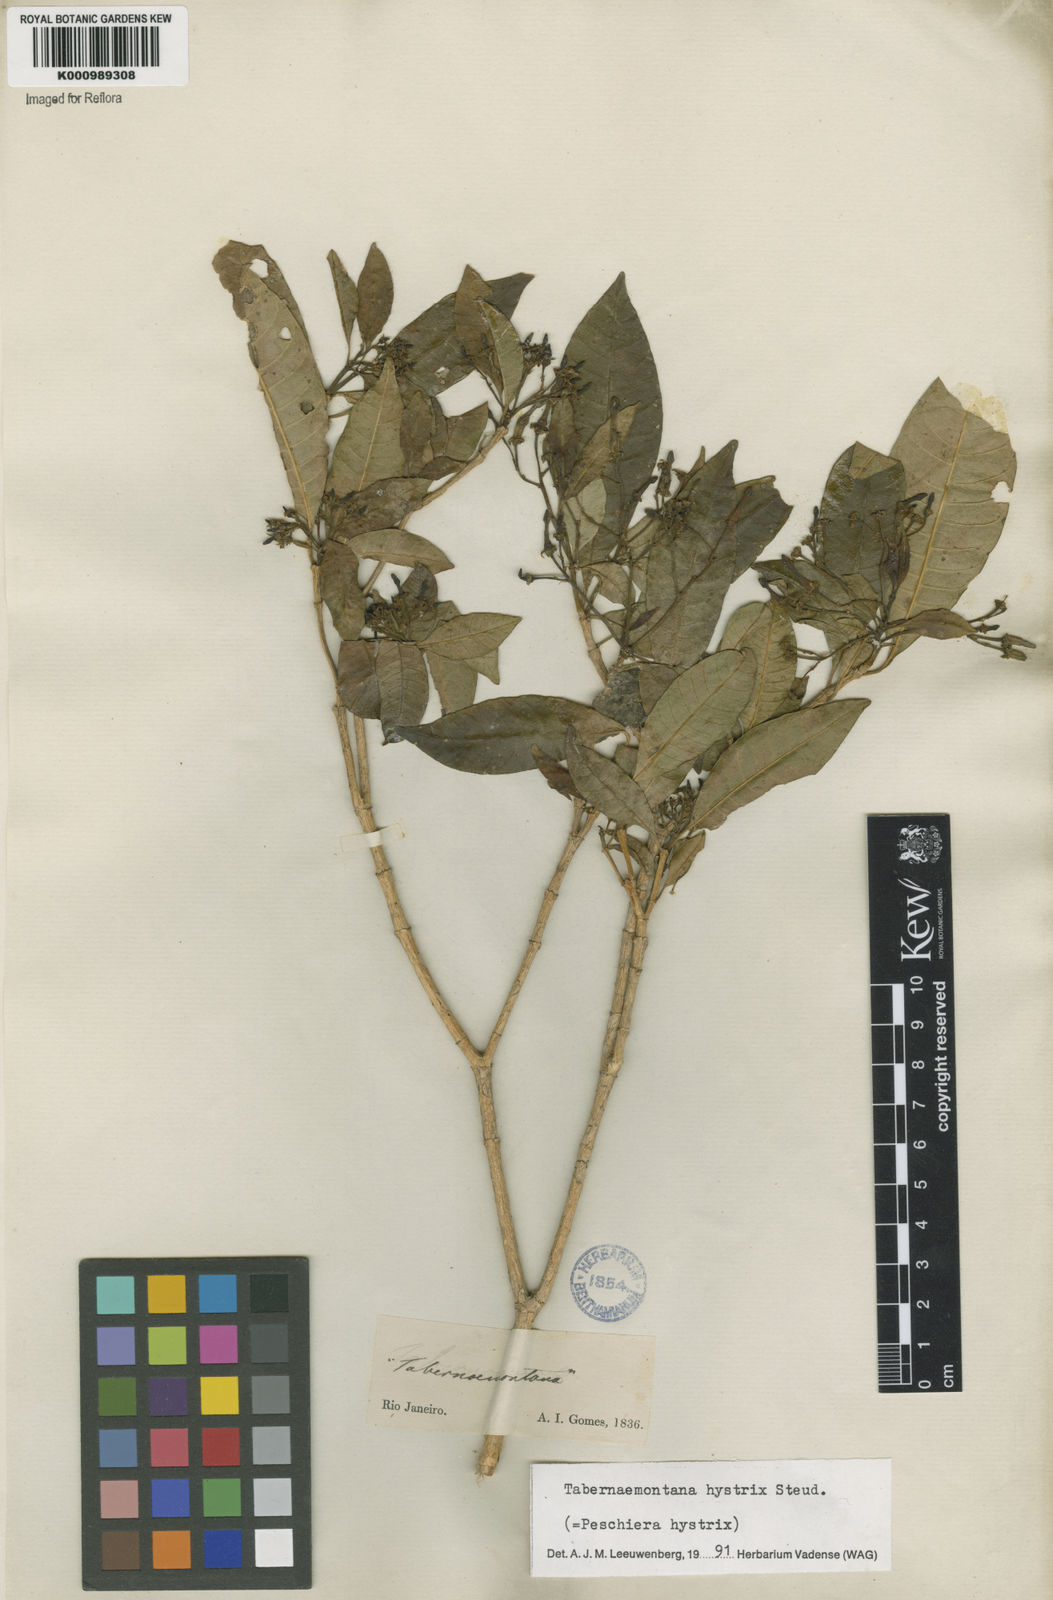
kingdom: Plantae
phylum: Tracheophyta
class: Magnoliopsida
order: Gentianales
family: Apocynaceae
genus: Tabernaemontana
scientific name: Tabernaemontana hystrix
